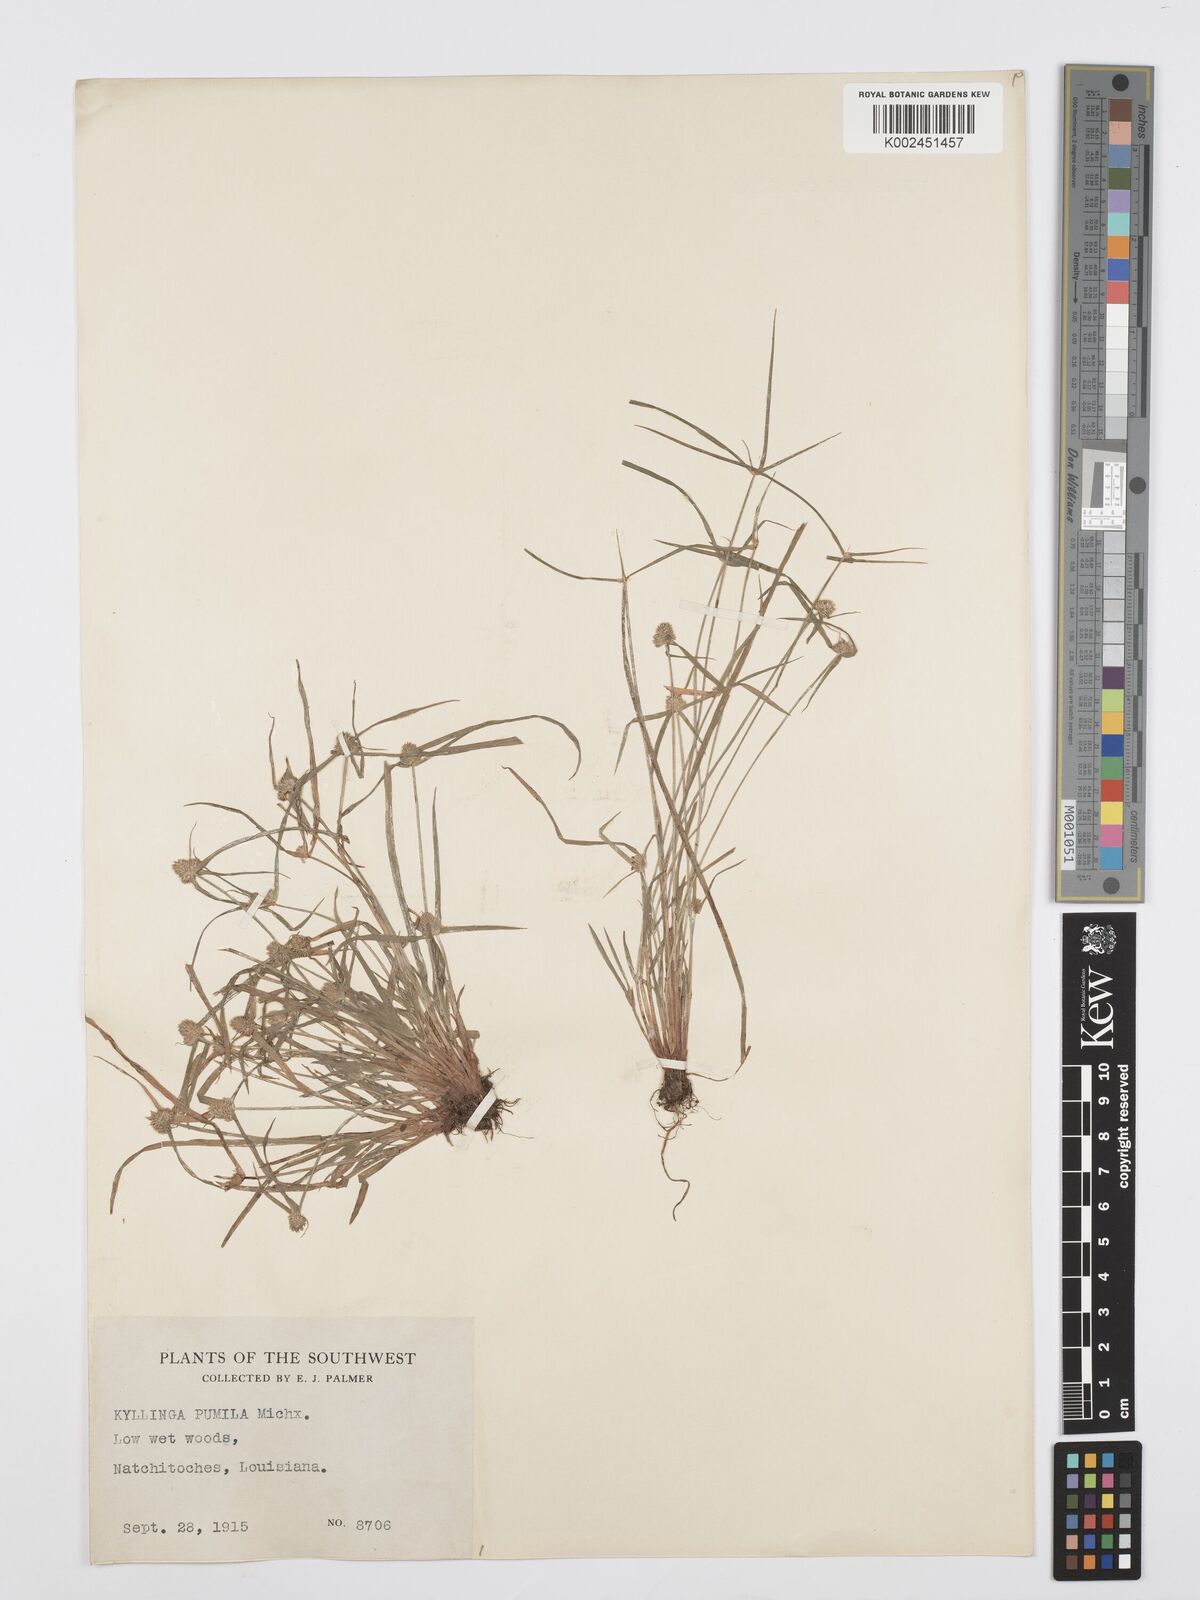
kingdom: Plantae
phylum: Tracheophyta
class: Liliopsida
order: Poales
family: Cyperaceae
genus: Cyperus
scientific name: Cyperus
